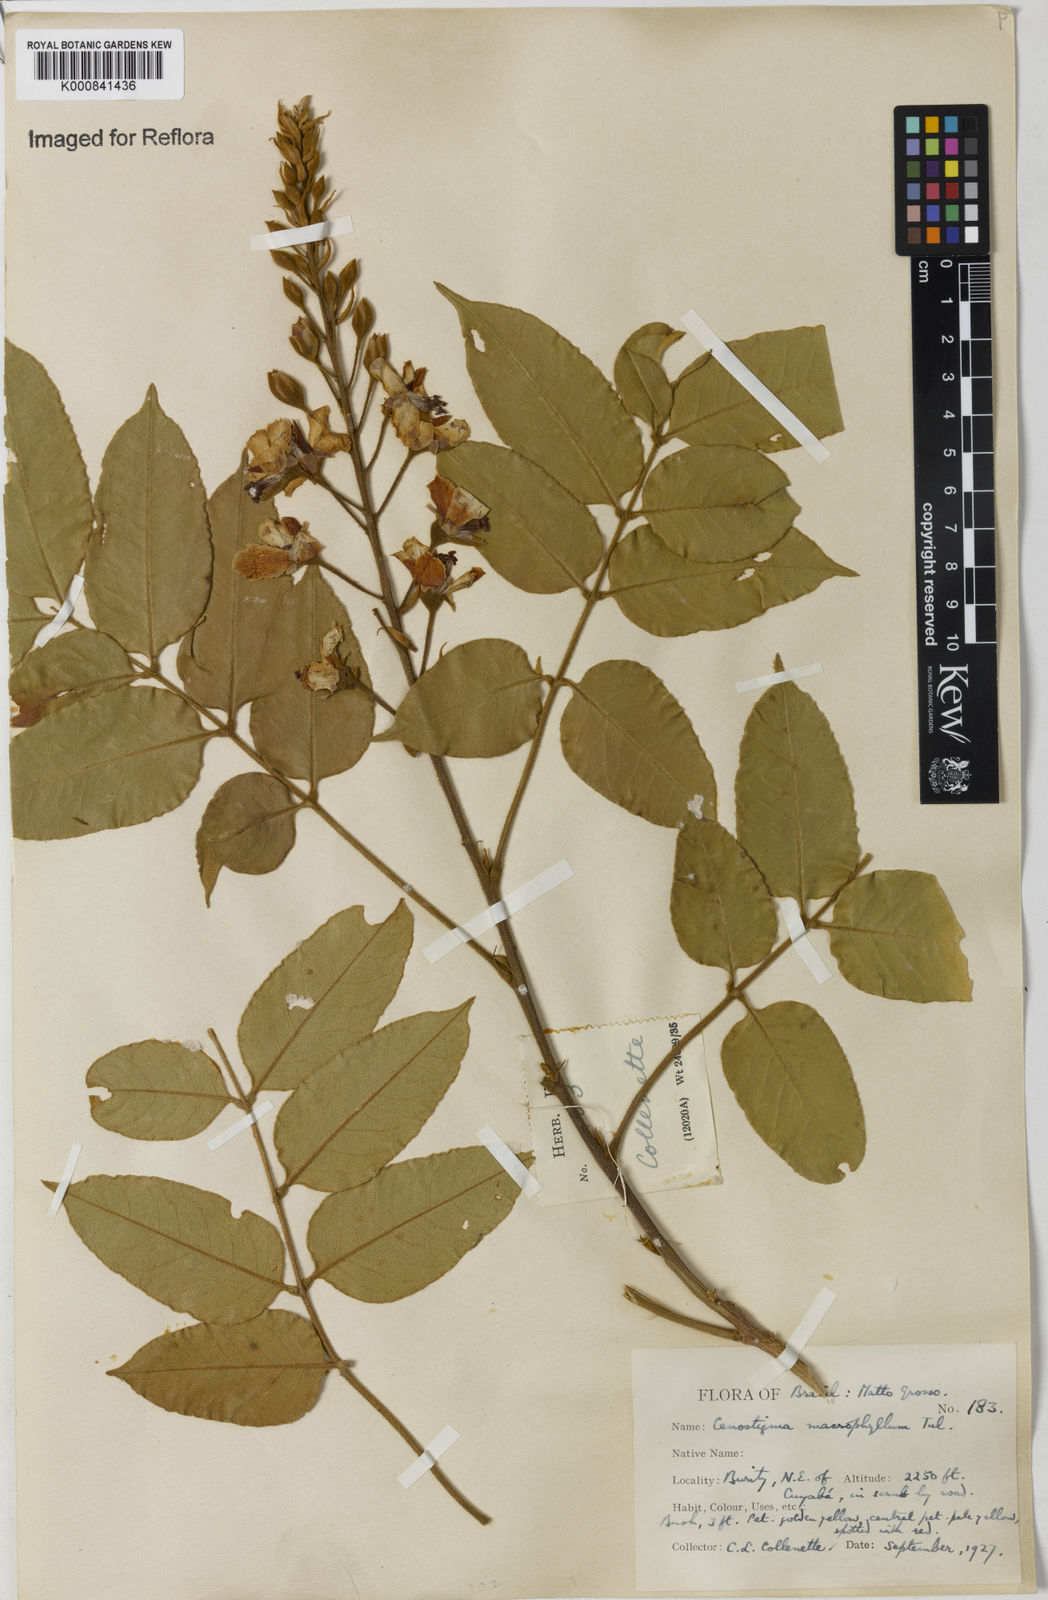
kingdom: Plantae
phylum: Tracheophyta
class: Magnoliopsida
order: Fabales
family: Fabaceae
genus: Cenostigma
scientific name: Cenostigma macrophyllum
